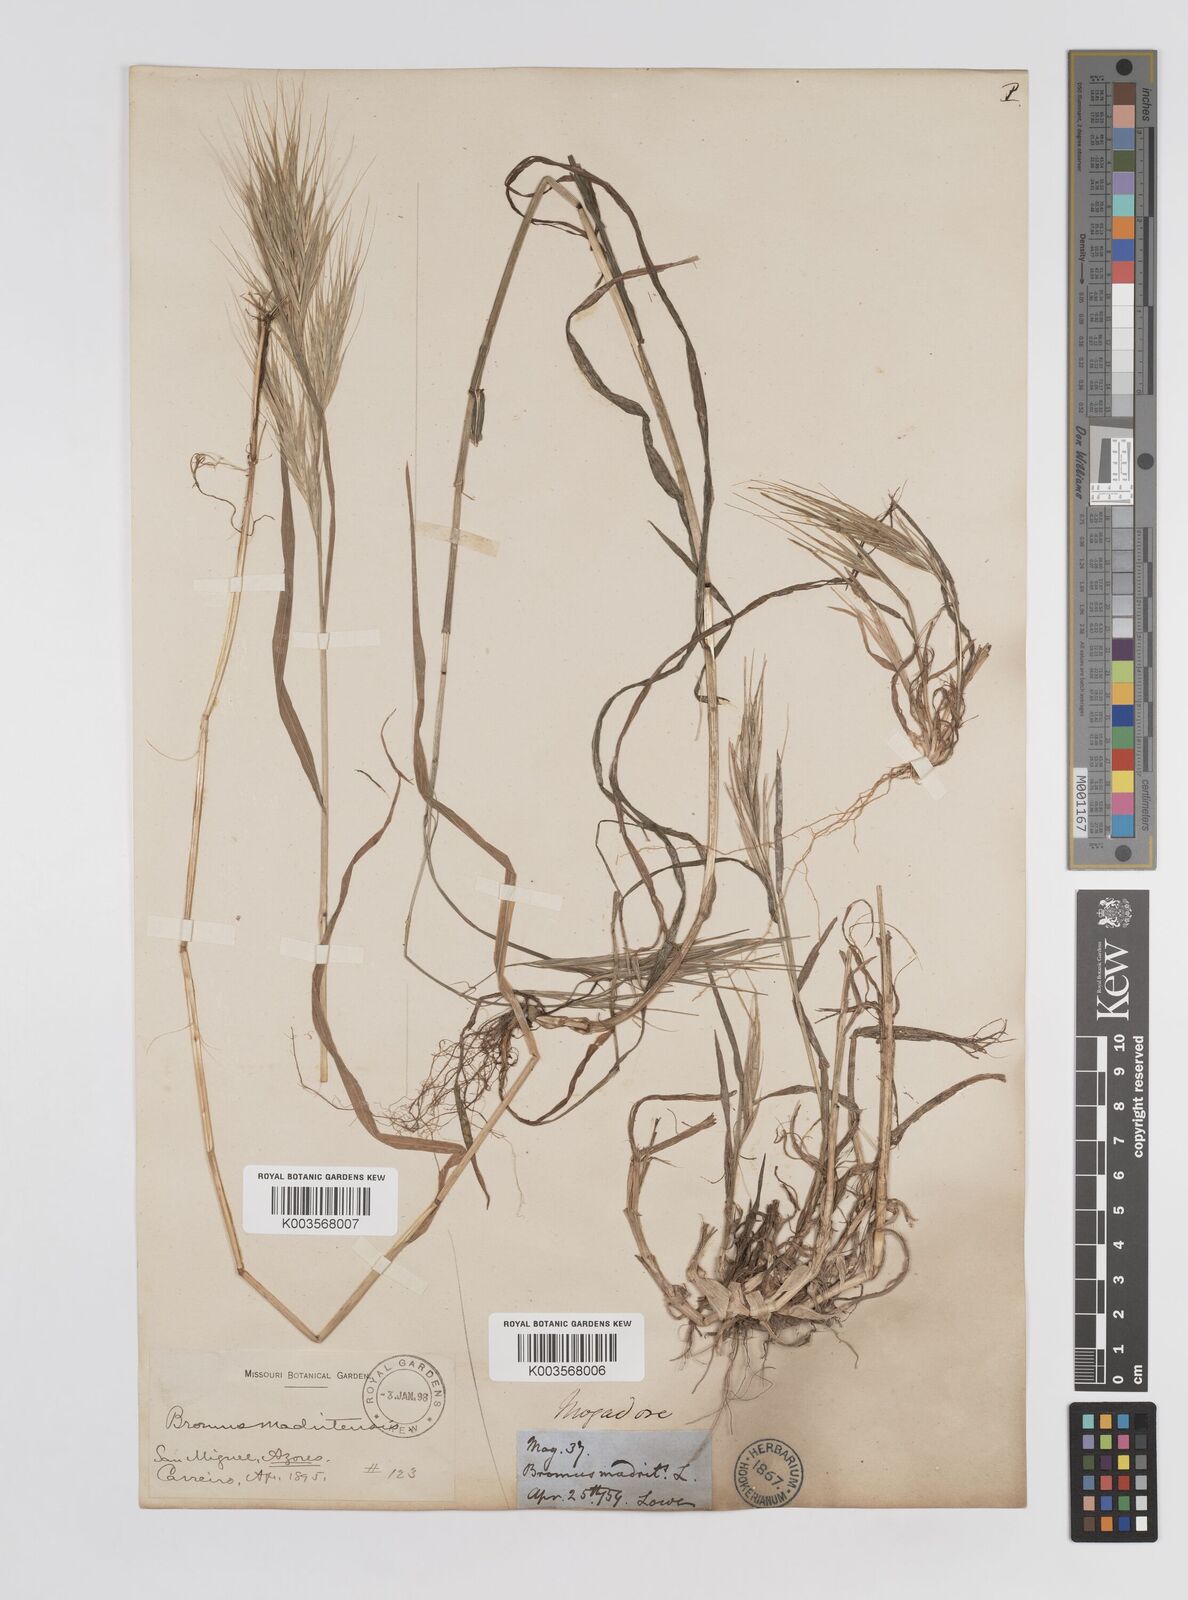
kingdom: Plantae
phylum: Tracheophyta
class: Liliopsida
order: Poales
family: Poaceae
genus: Bromus
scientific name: Bromus
